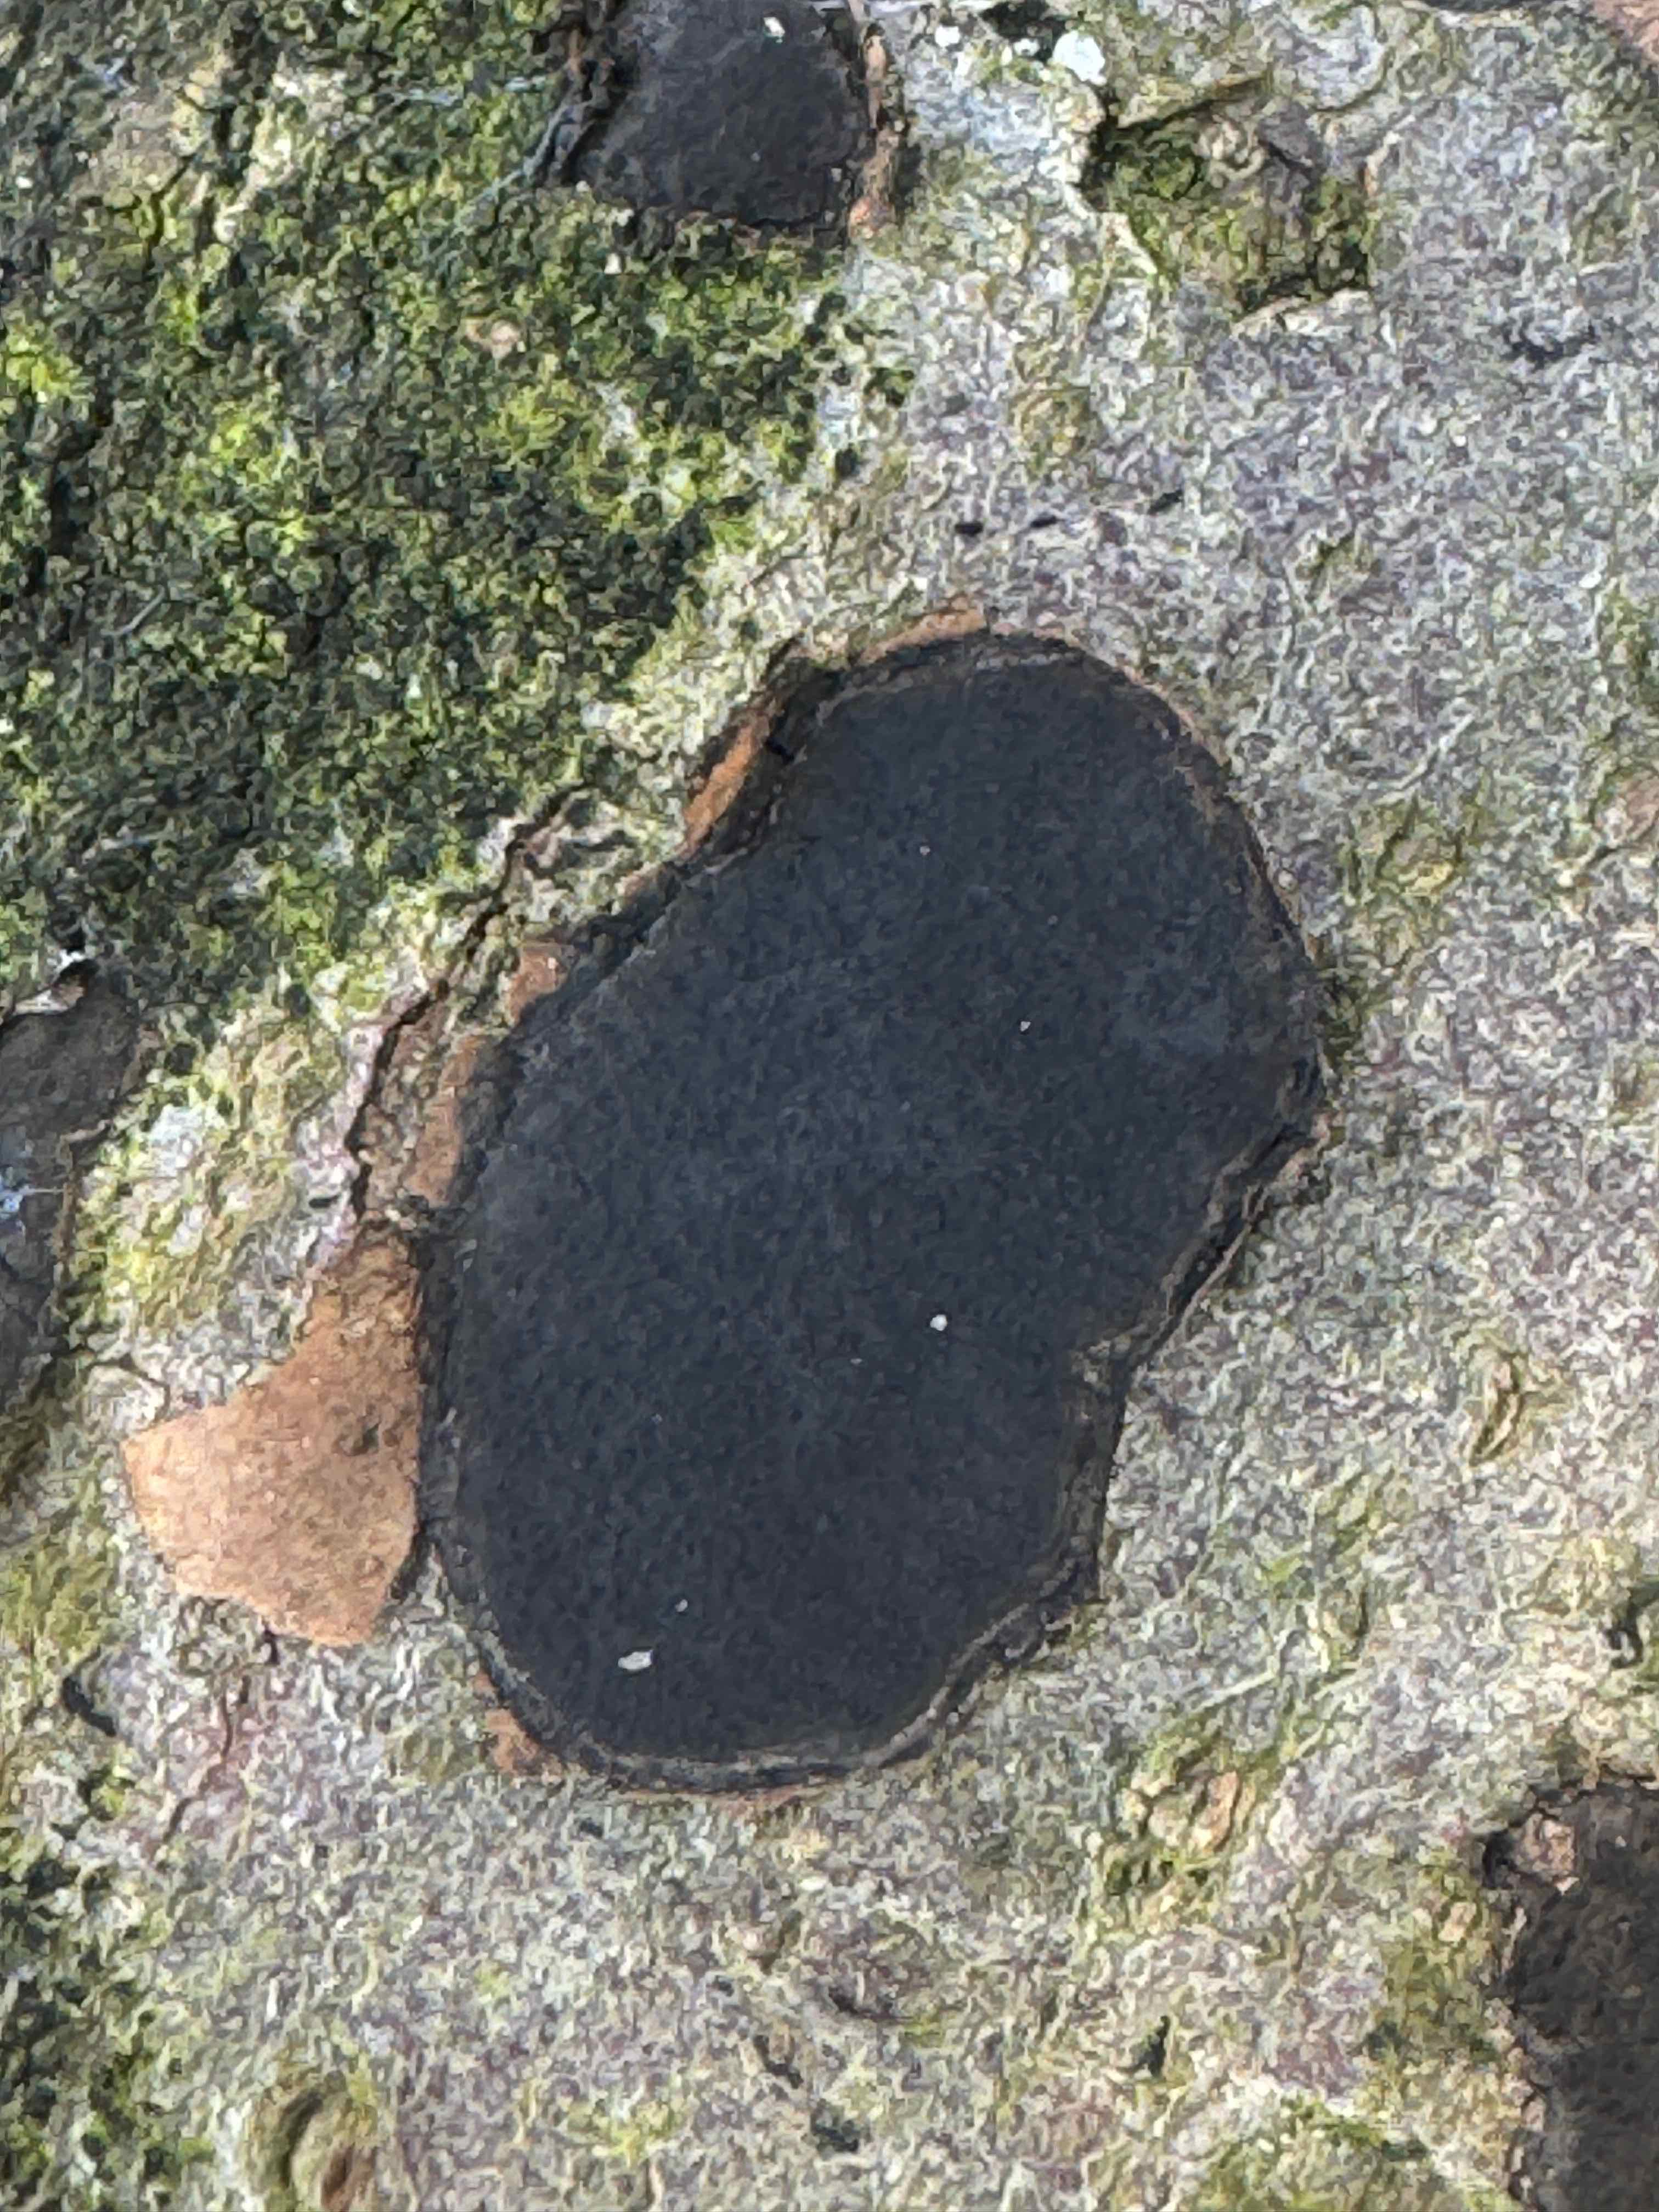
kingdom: Fungi
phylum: Ascomycota
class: Sordariomycetes
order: Xylariales
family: Graphostromataceae
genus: Biscogniauxia
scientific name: Biscogniauxia nummularia
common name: bøge-kulskive
